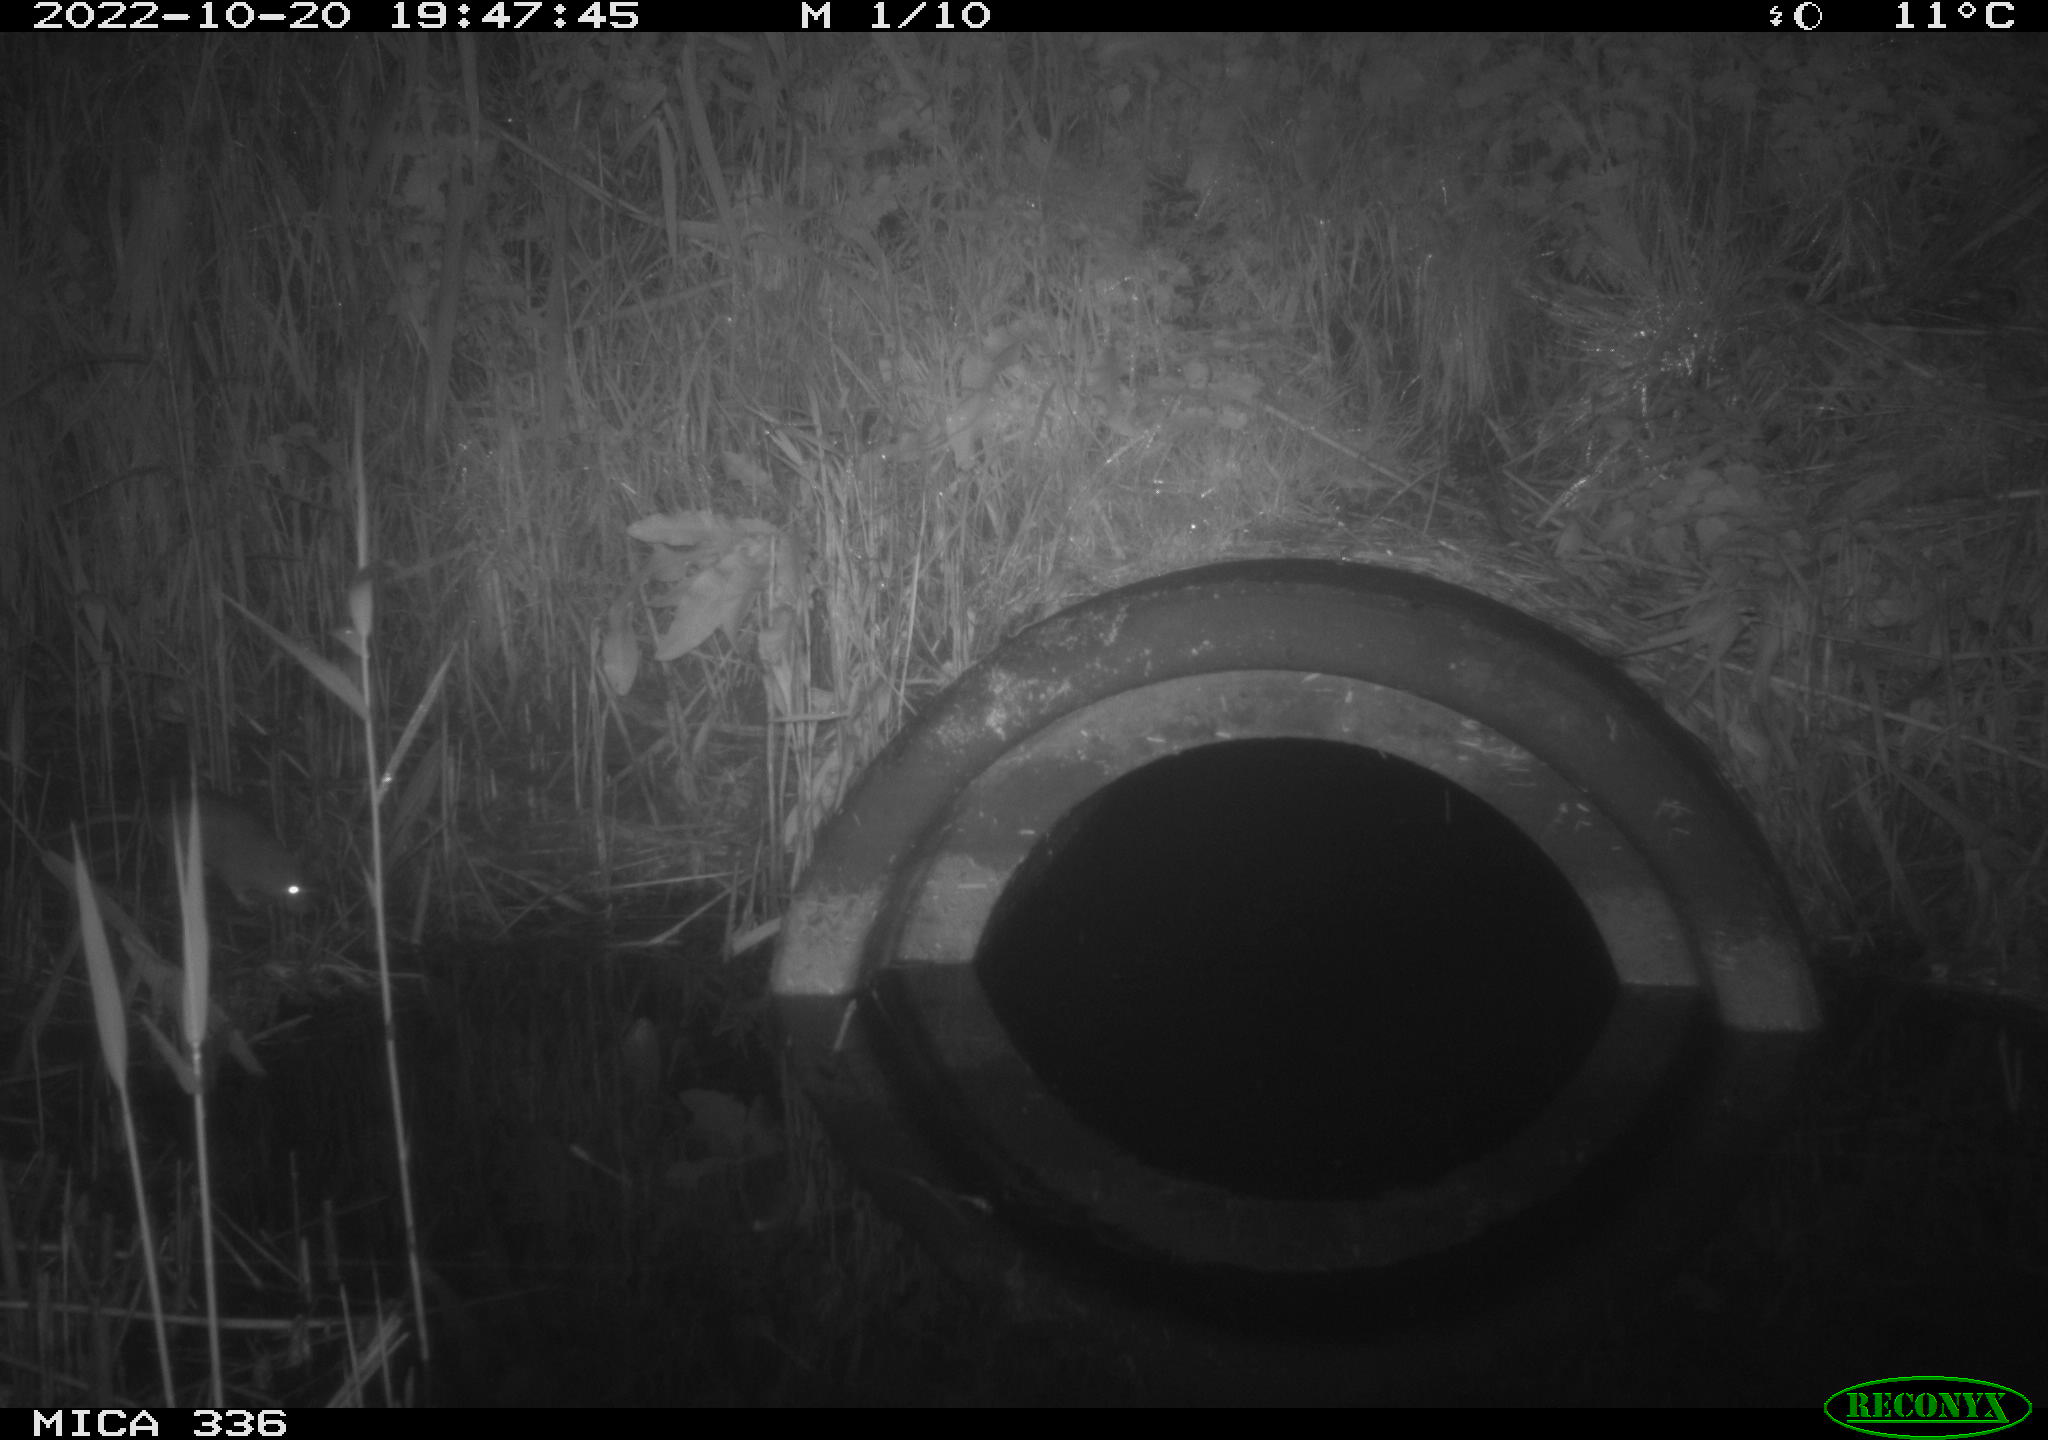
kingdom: Animalia
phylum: Chordata
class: Mammalia
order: Rodentia
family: Muridae
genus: Rattus
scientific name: Rattus norvegicus
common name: Brown rat
